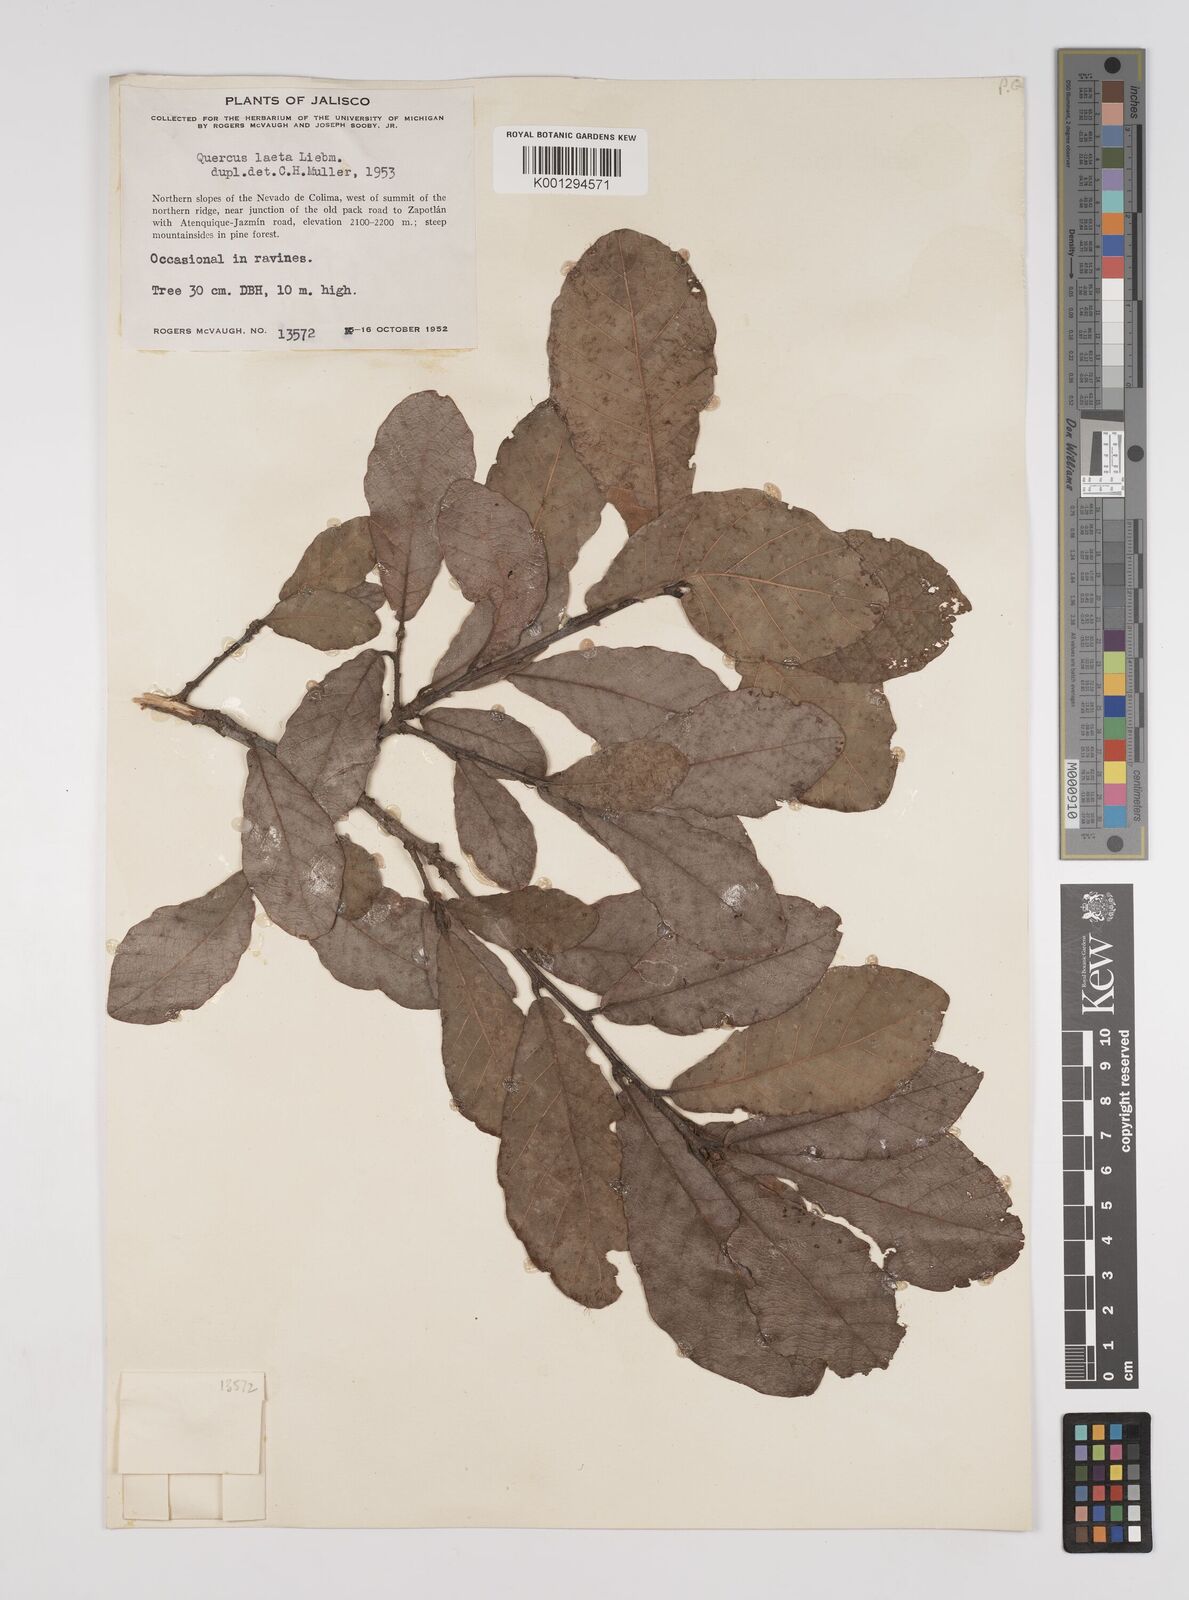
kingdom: Plantae
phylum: Tracheophyta
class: Magnoliopsida
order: Fagales
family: Fagaceae
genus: Quercus
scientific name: Quercus laeta
